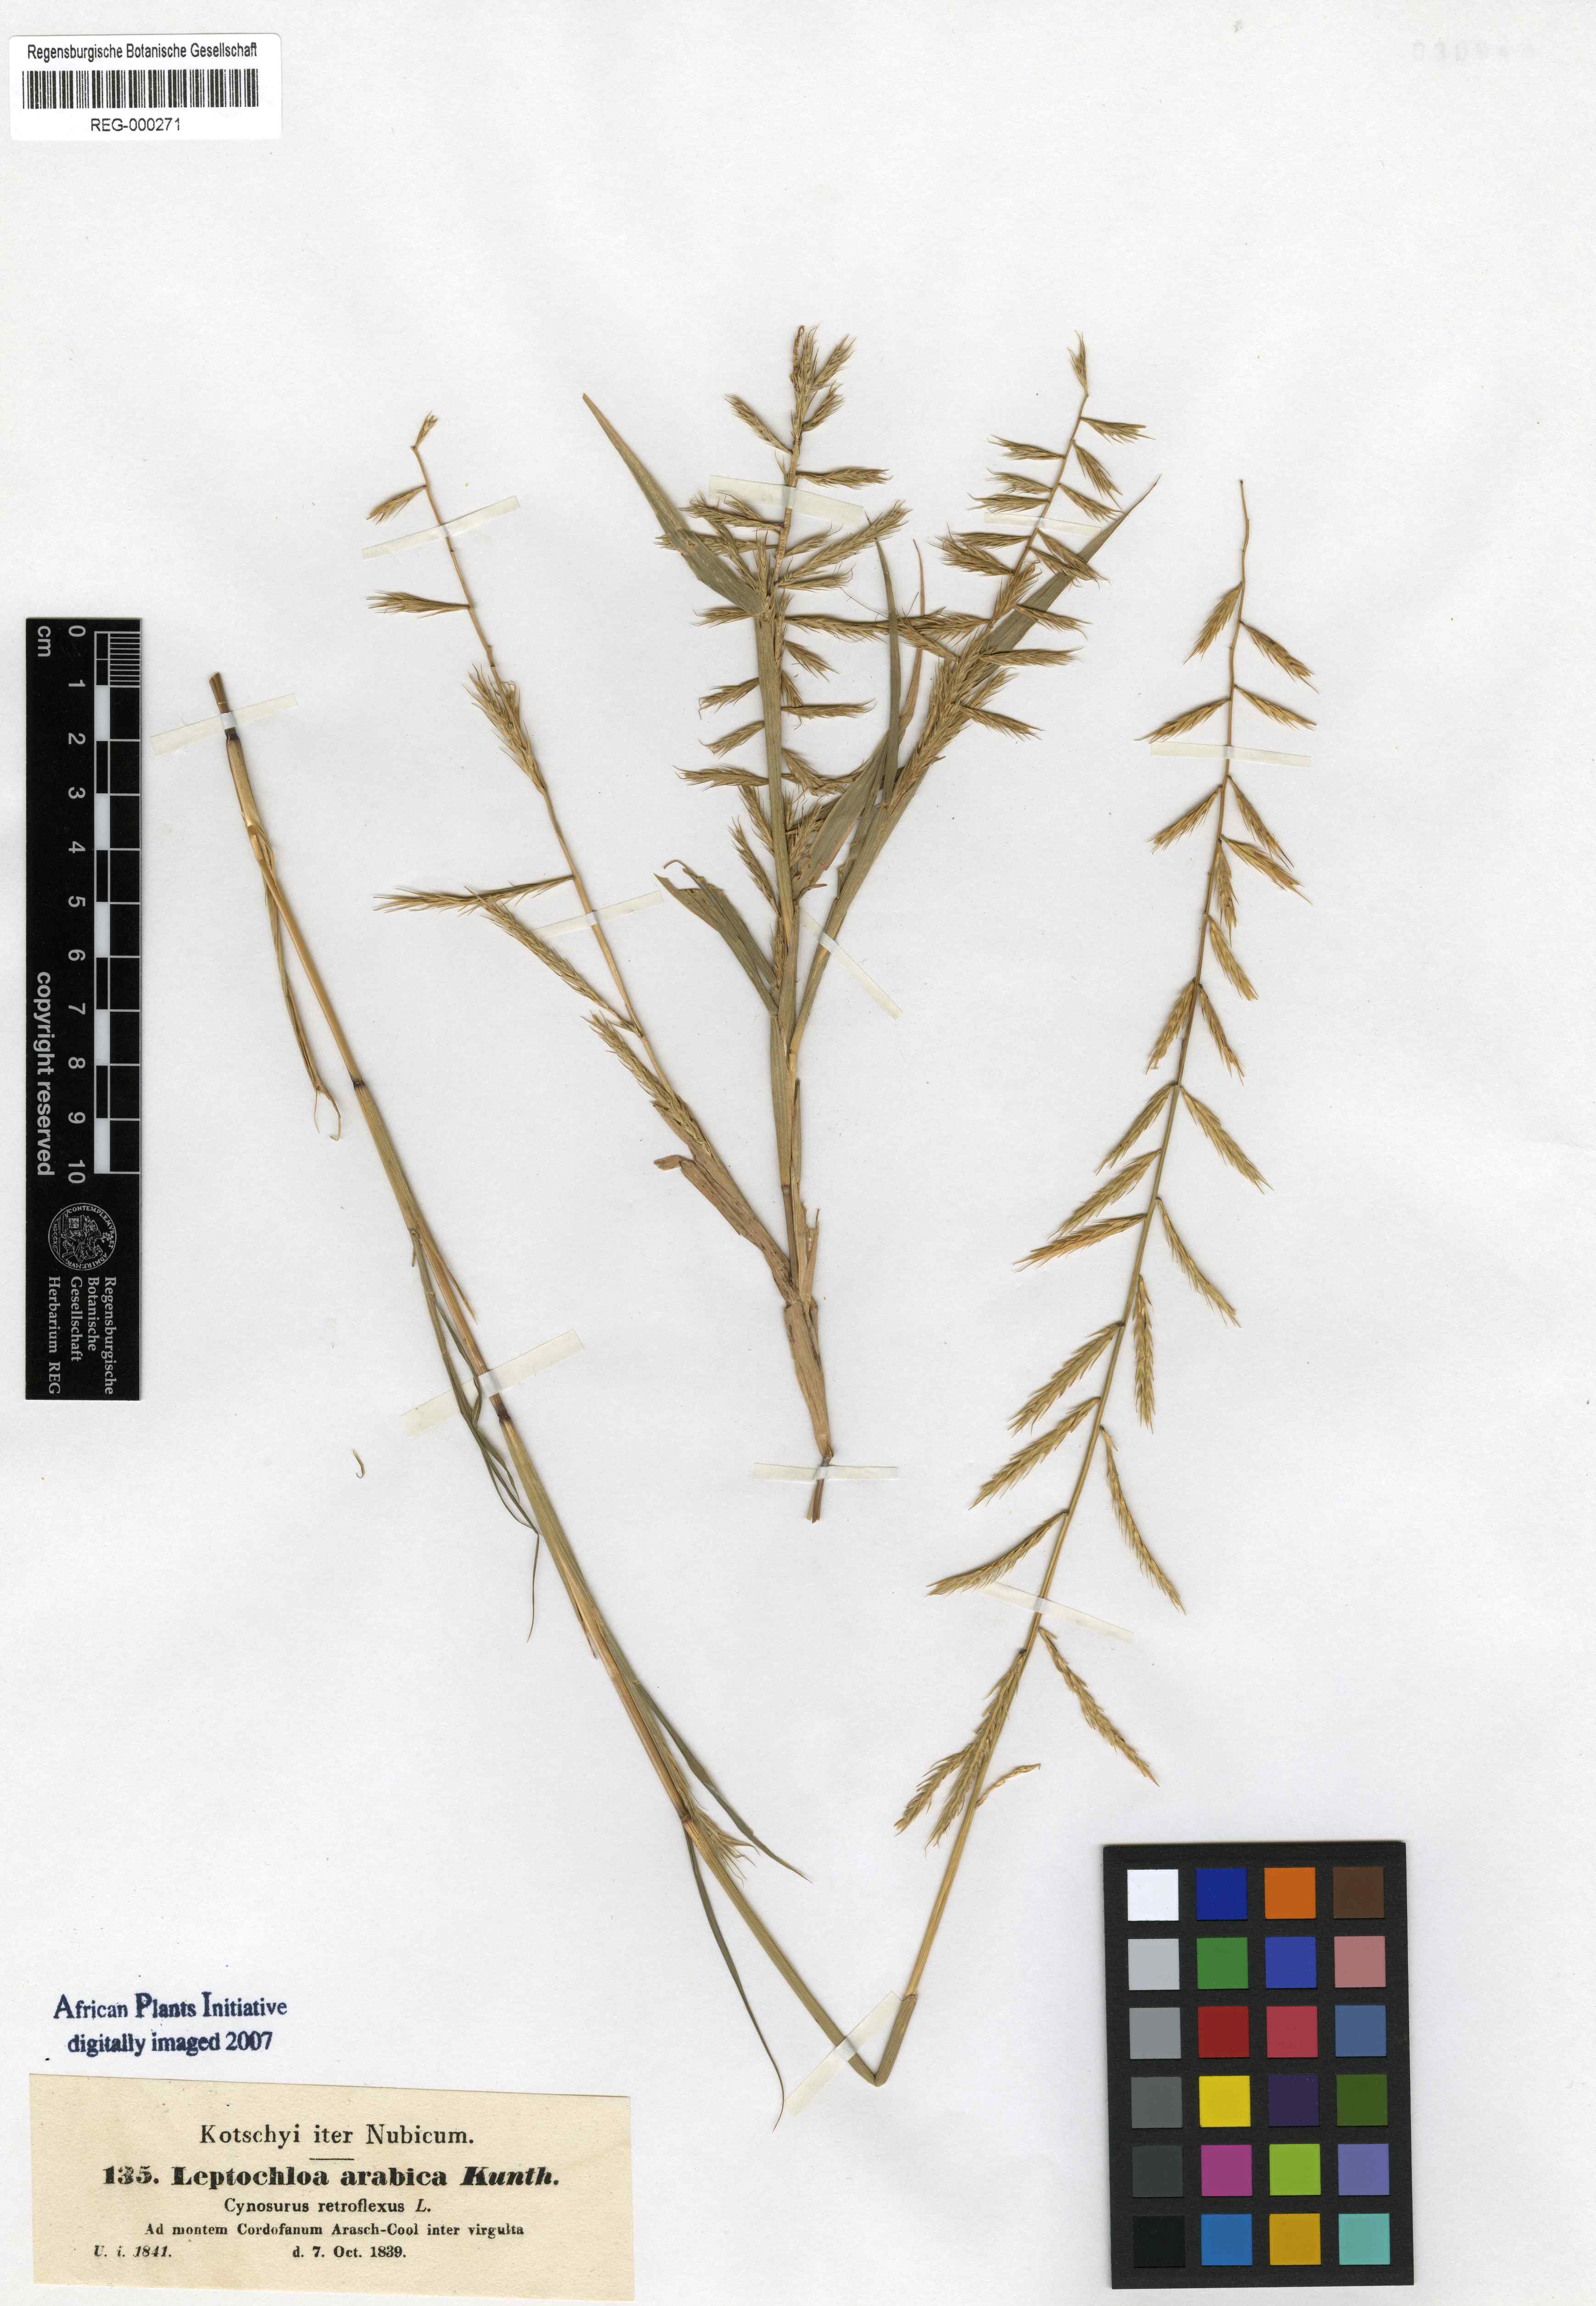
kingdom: Plantae
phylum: Tracheophyta
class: Liliopsida
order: Poales
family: Poaceae
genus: Dinebra
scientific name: Dinebra retroflexa
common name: Viper grass
